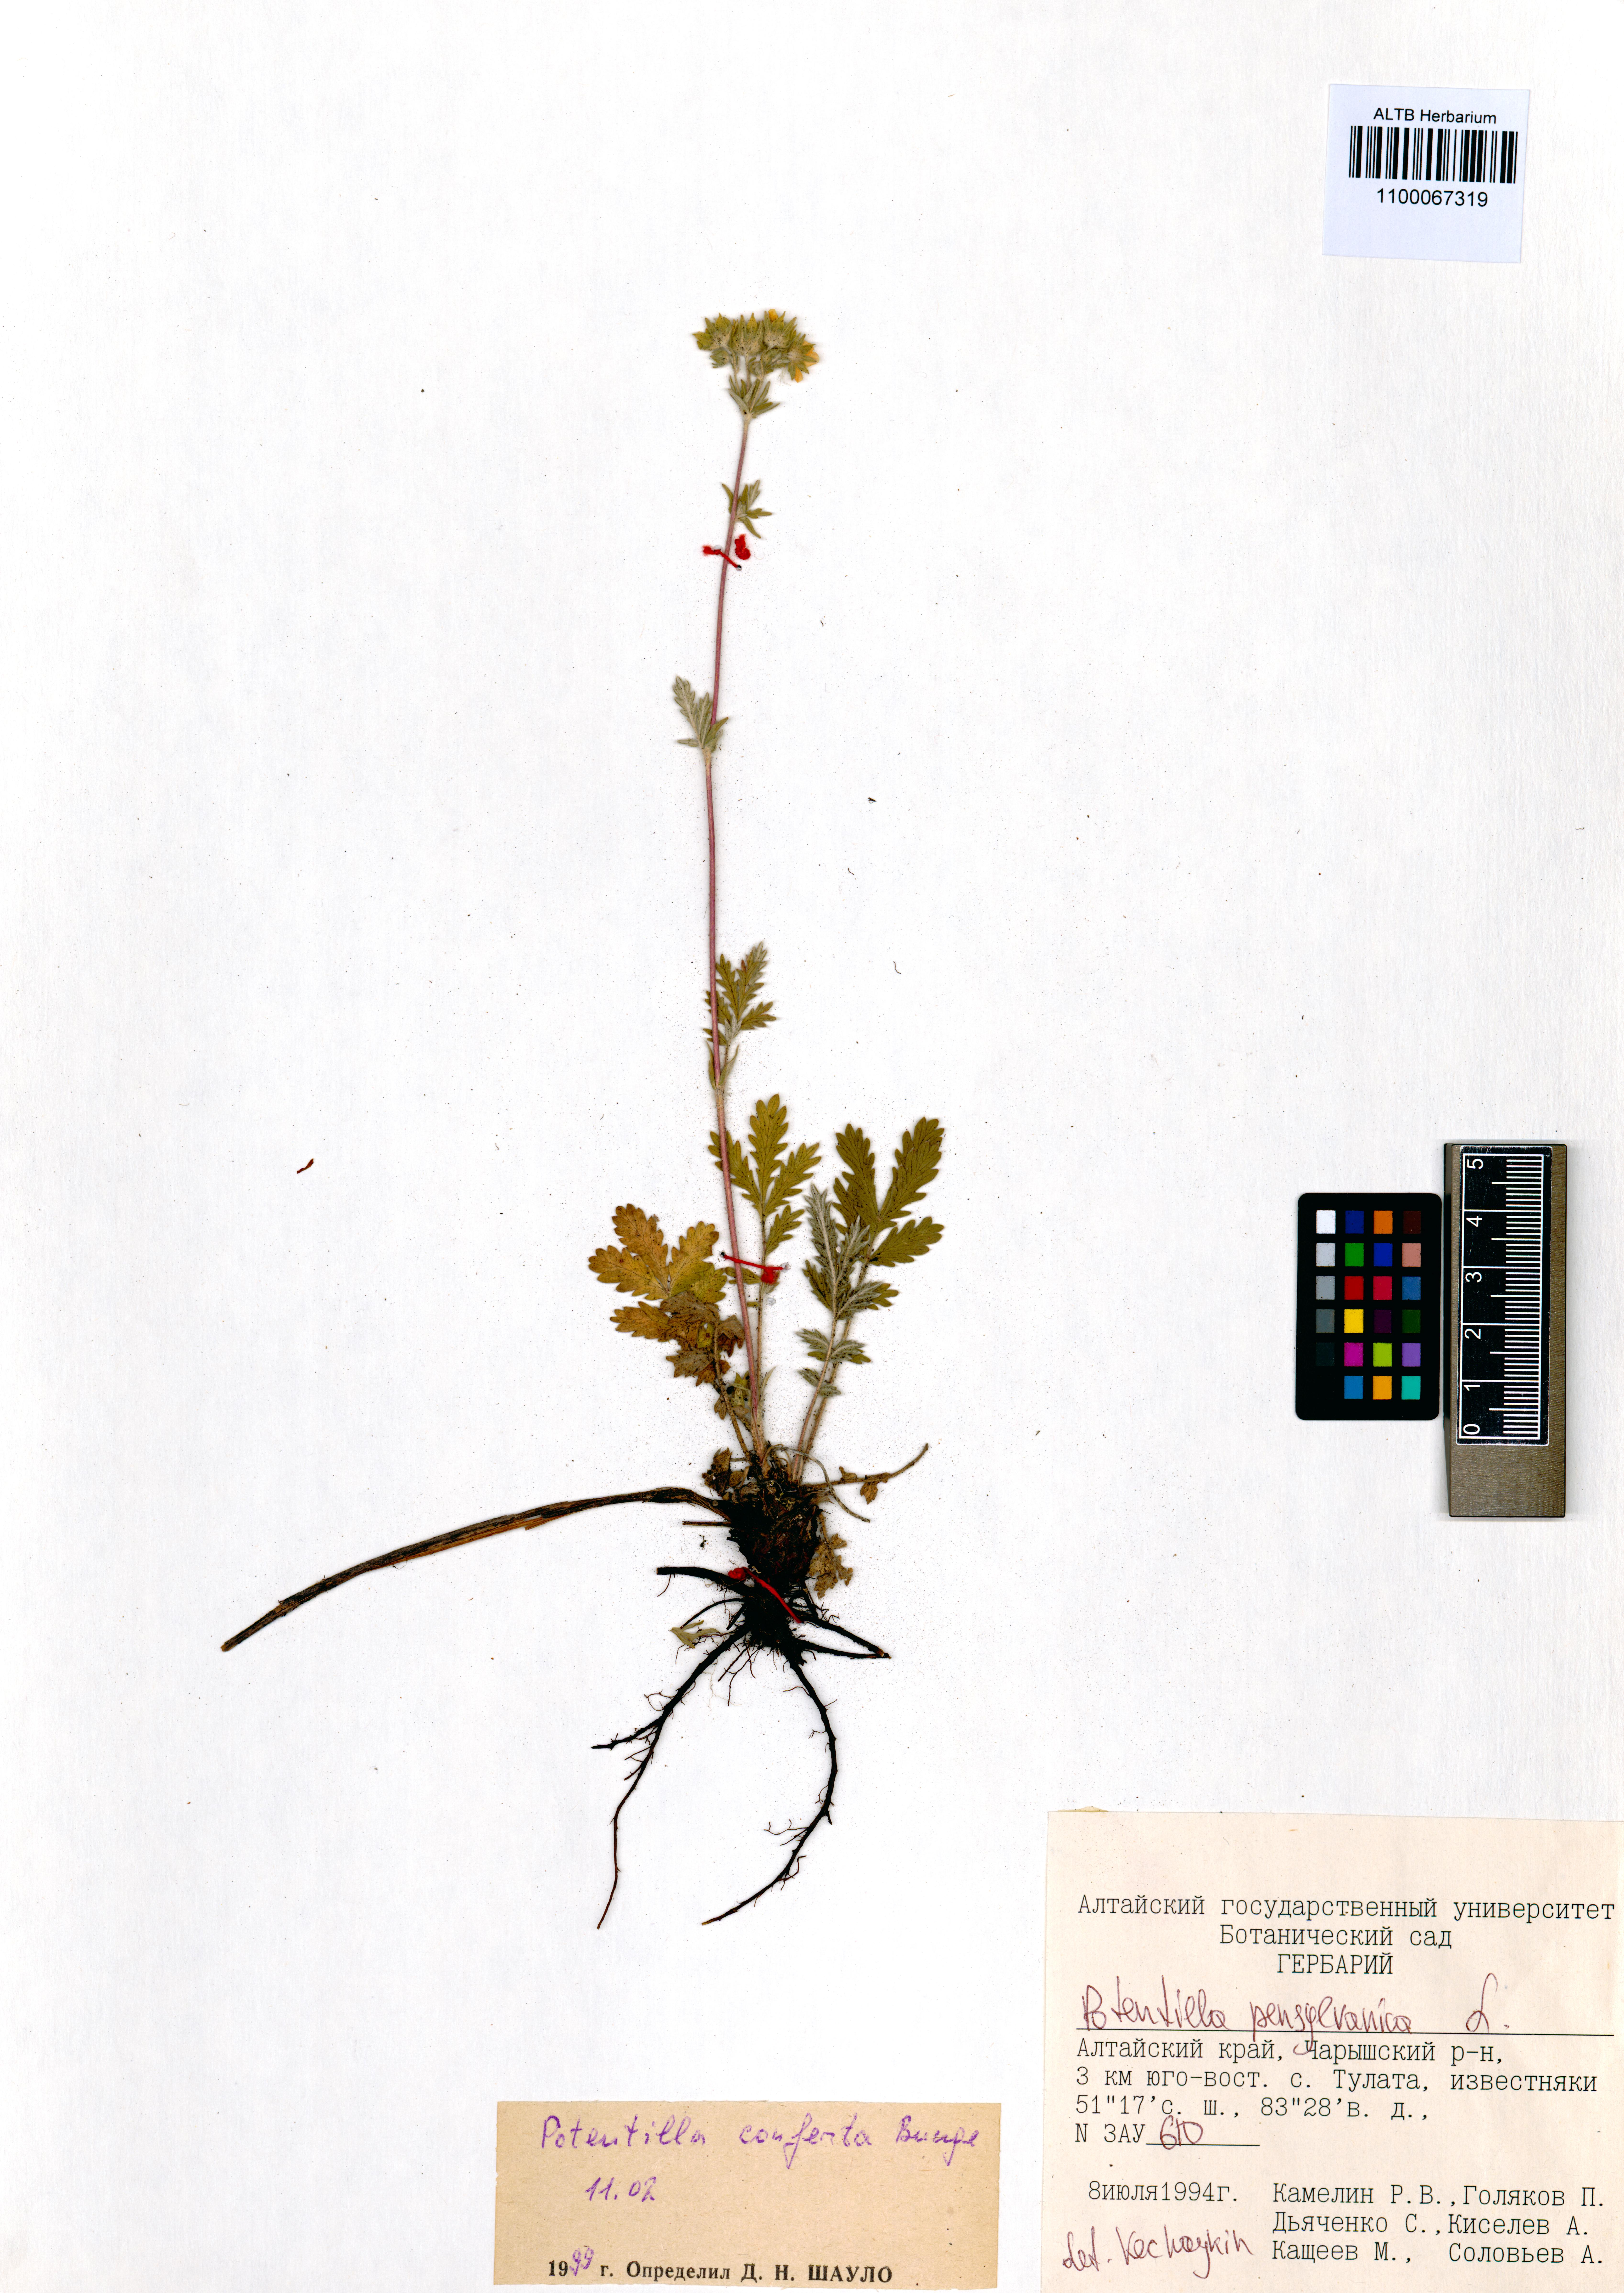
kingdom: Plantae
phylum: Tracheophyta
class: Magnoliopsida
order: Rosales
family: Rosaceae
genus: Potentilla
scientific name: Potentilla pensylvanica
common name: Pennsylvania cinquefoil
